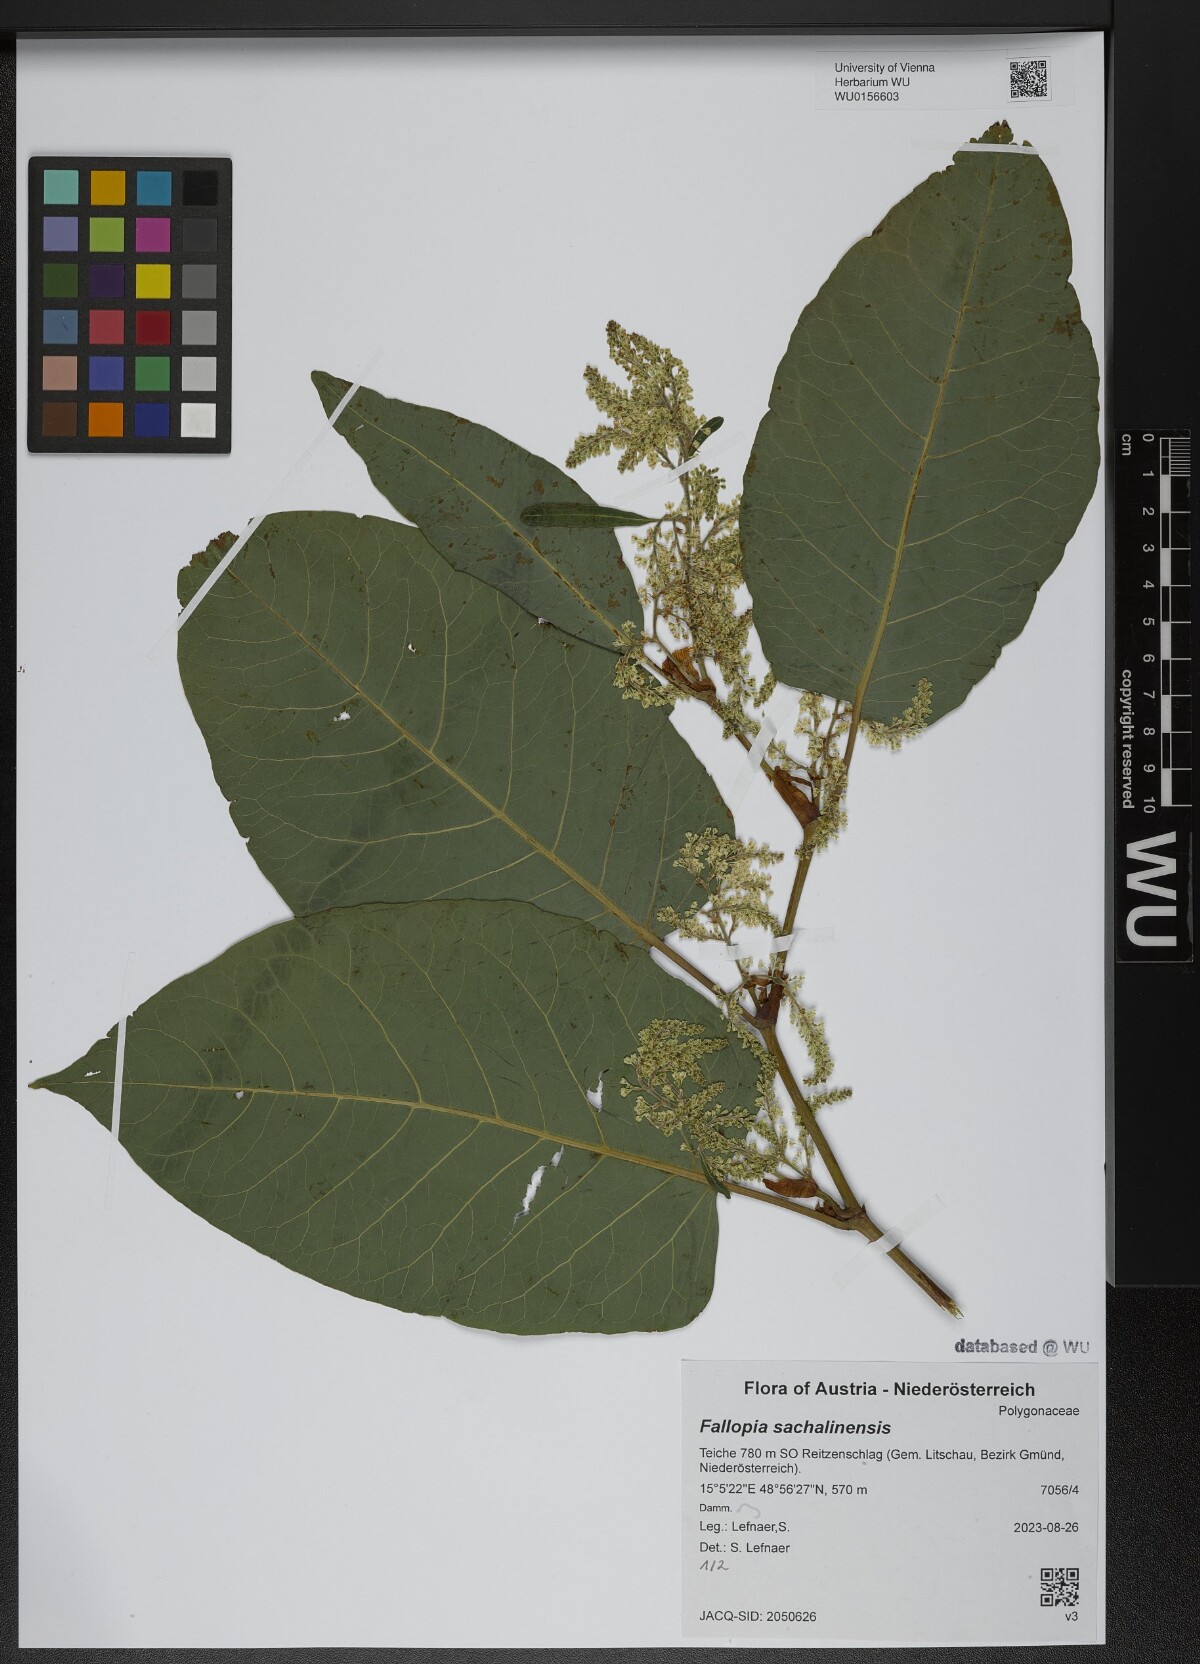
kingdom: Plantae
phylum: Tracheophyta
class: Magnoliopsida
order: Caryophyllales
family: Polygonaceae
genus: Reynoutria
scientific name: Reynoutria sachalinensis
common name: Giant knotweed
